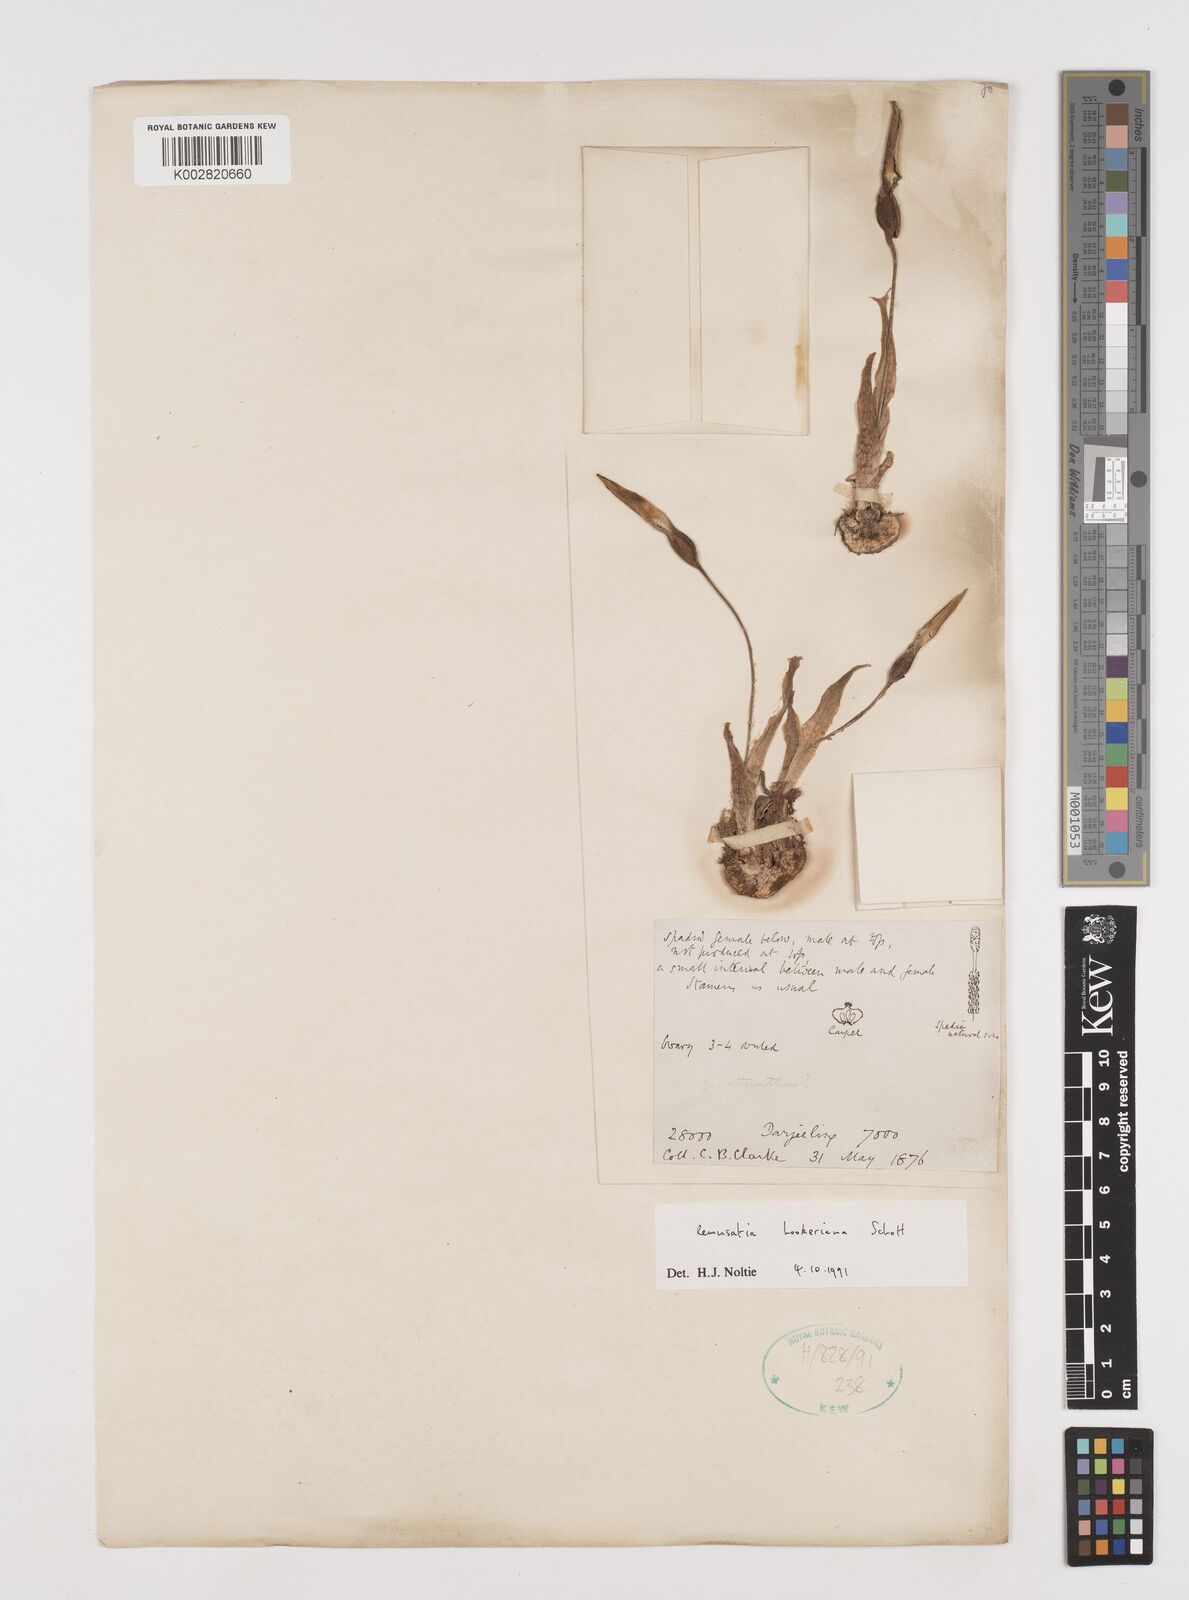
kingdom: Plantae
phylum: Tracheophyta
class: Liliopsida
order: Alismatales
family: Araceae
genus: Remusatia
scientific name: Remusatia hookeriana
